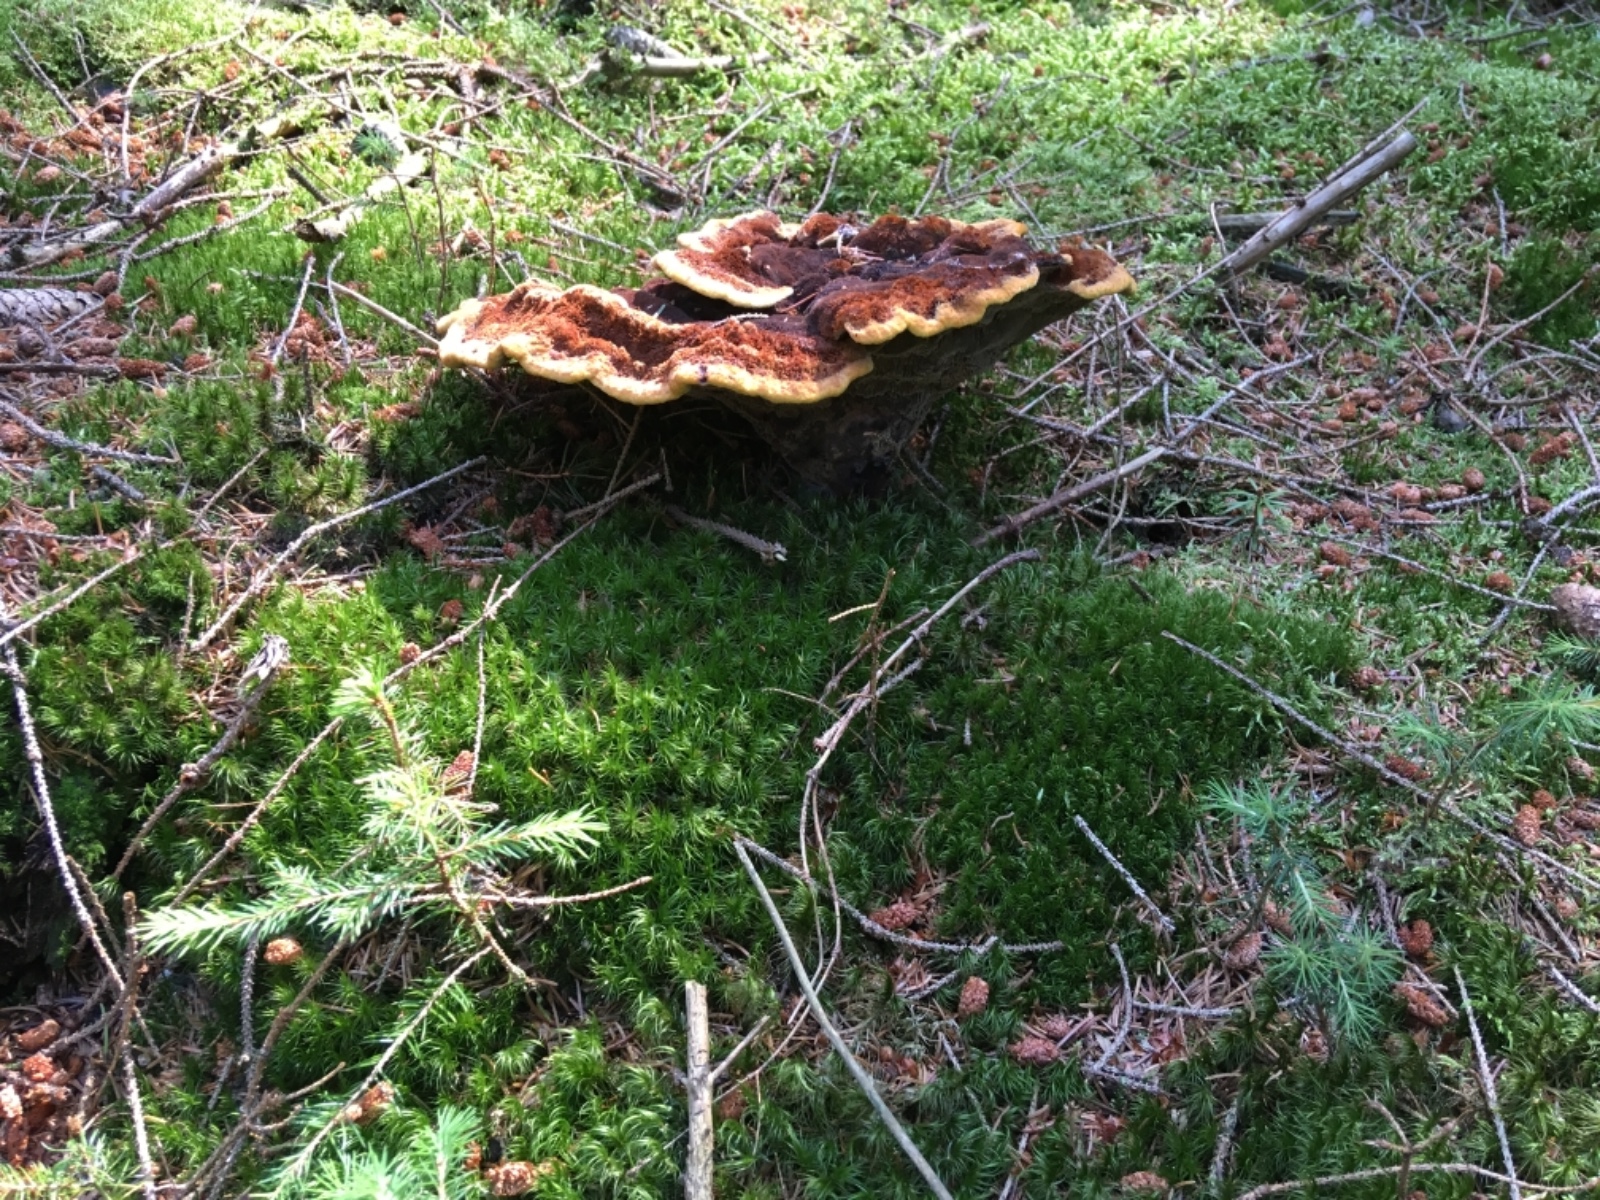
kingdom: Fungi
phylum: Basidiomycota
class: Agaricomycetes
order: Polyporales
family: Laetiporaceae
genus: Phaeolus
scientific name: Phaeolus schweinitzii
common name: brunporesvamp
